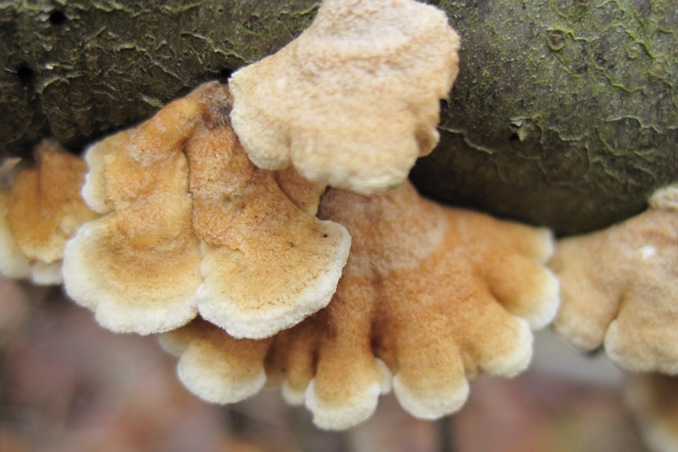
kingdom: Fungi
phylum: Basidiomycota
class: Agaricomycetes
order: Amylocorticiales
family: Amylocorticiaceae
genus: Plicaturopsis
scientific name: Plicaturopsis crispa
